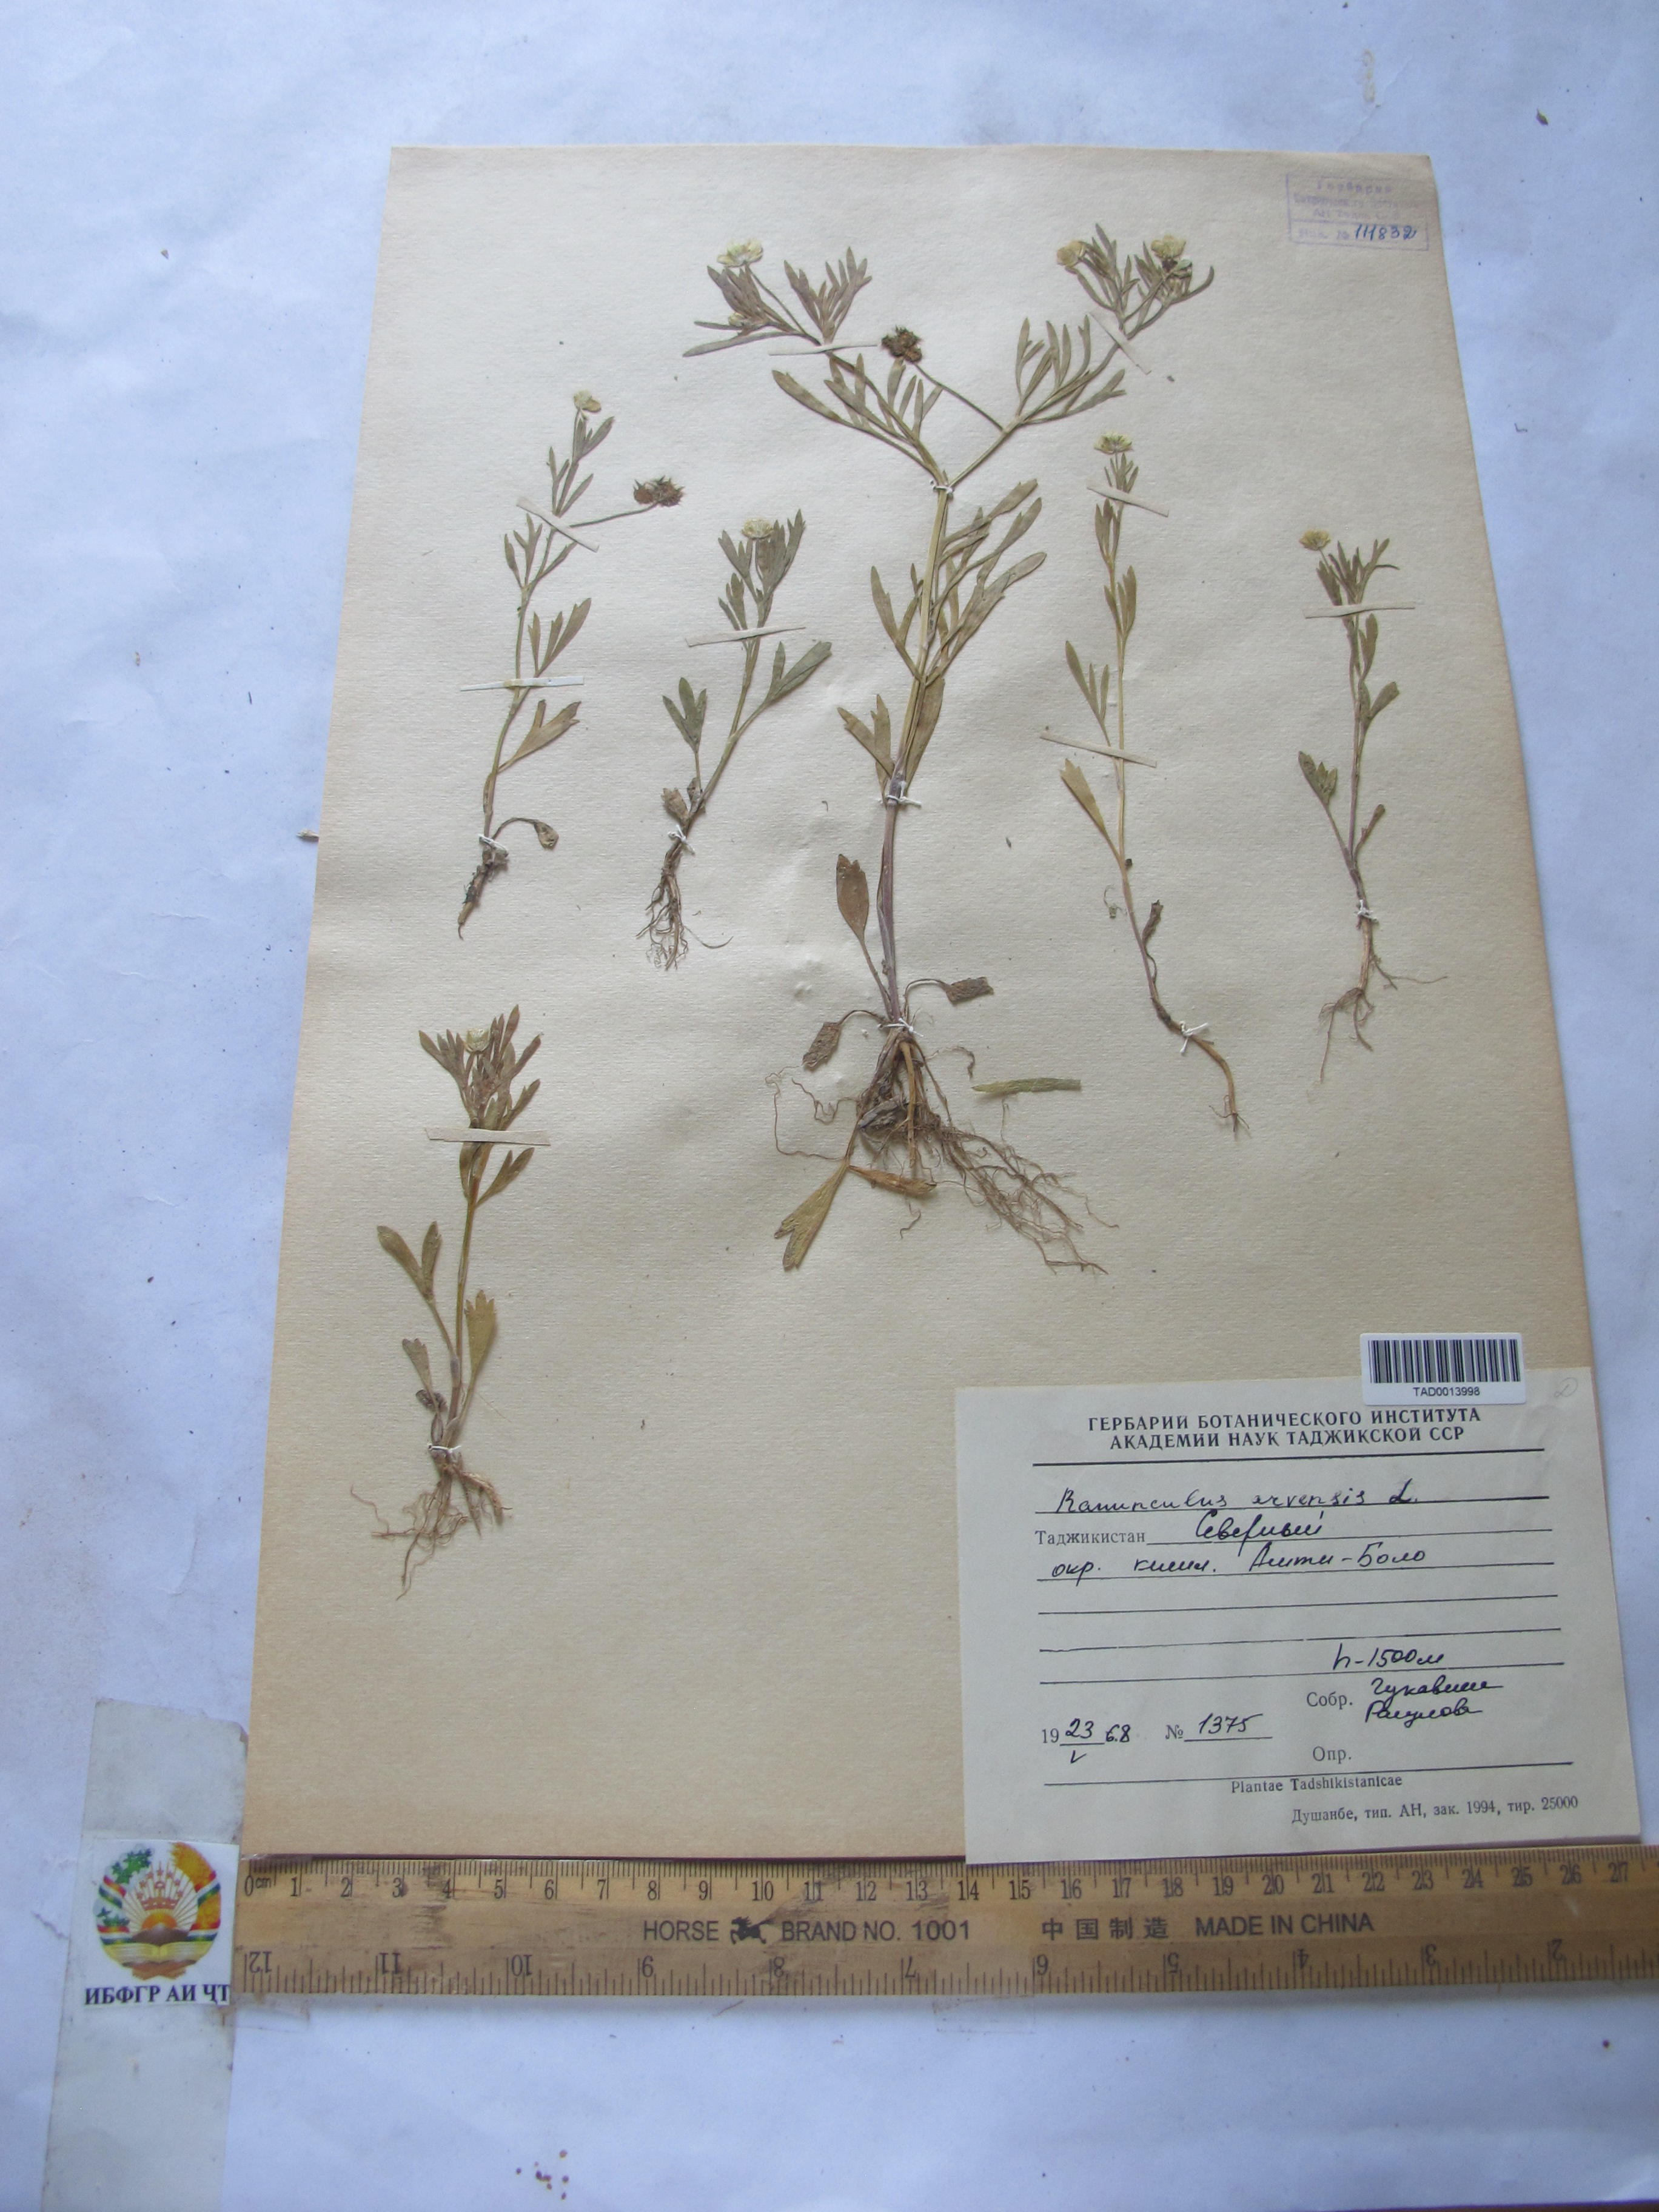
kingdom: Plantae
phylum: Tracheophyta
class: Magnoliopsida
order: Ranunculales
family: Ranunculaceae
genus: Ranunculus
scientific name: Ranunculus arvensis
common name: Corn buttercup
